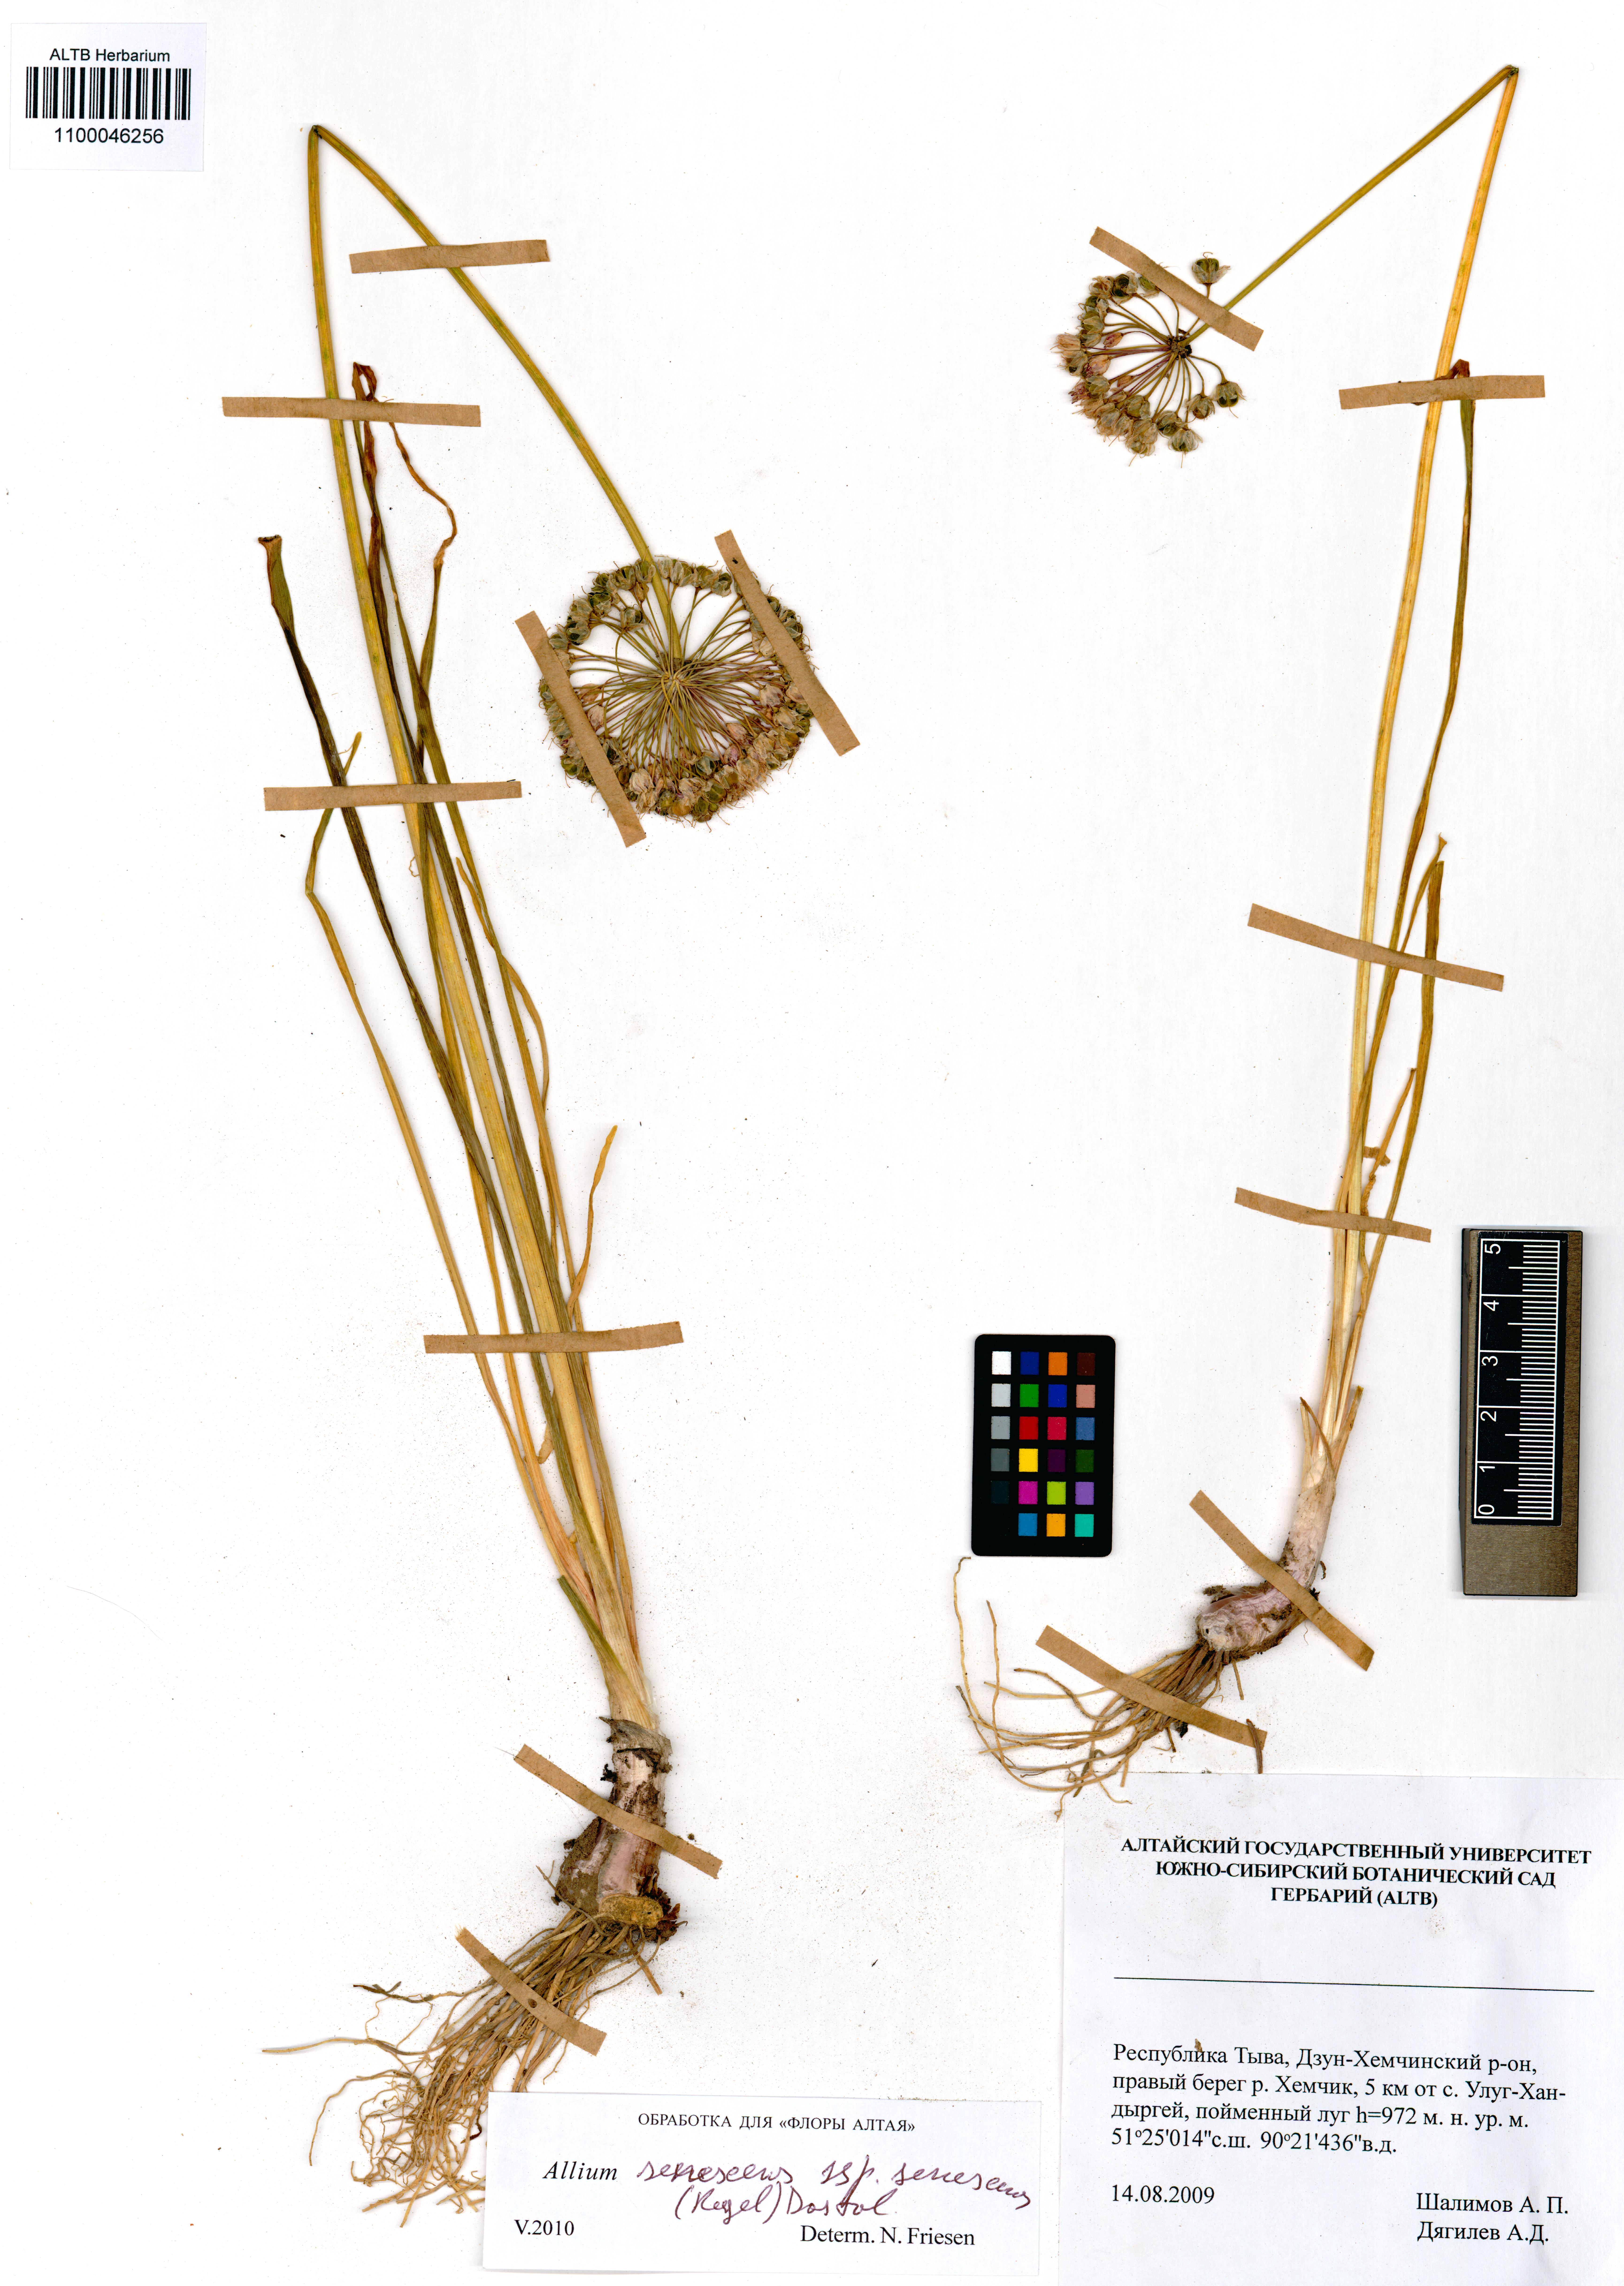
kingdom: Plantae
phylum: Tracheophyta
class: Liliopsida
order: Asparagales
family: Amaryllidaceae
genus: Allium
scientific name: Allium senescens
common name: German garlic
